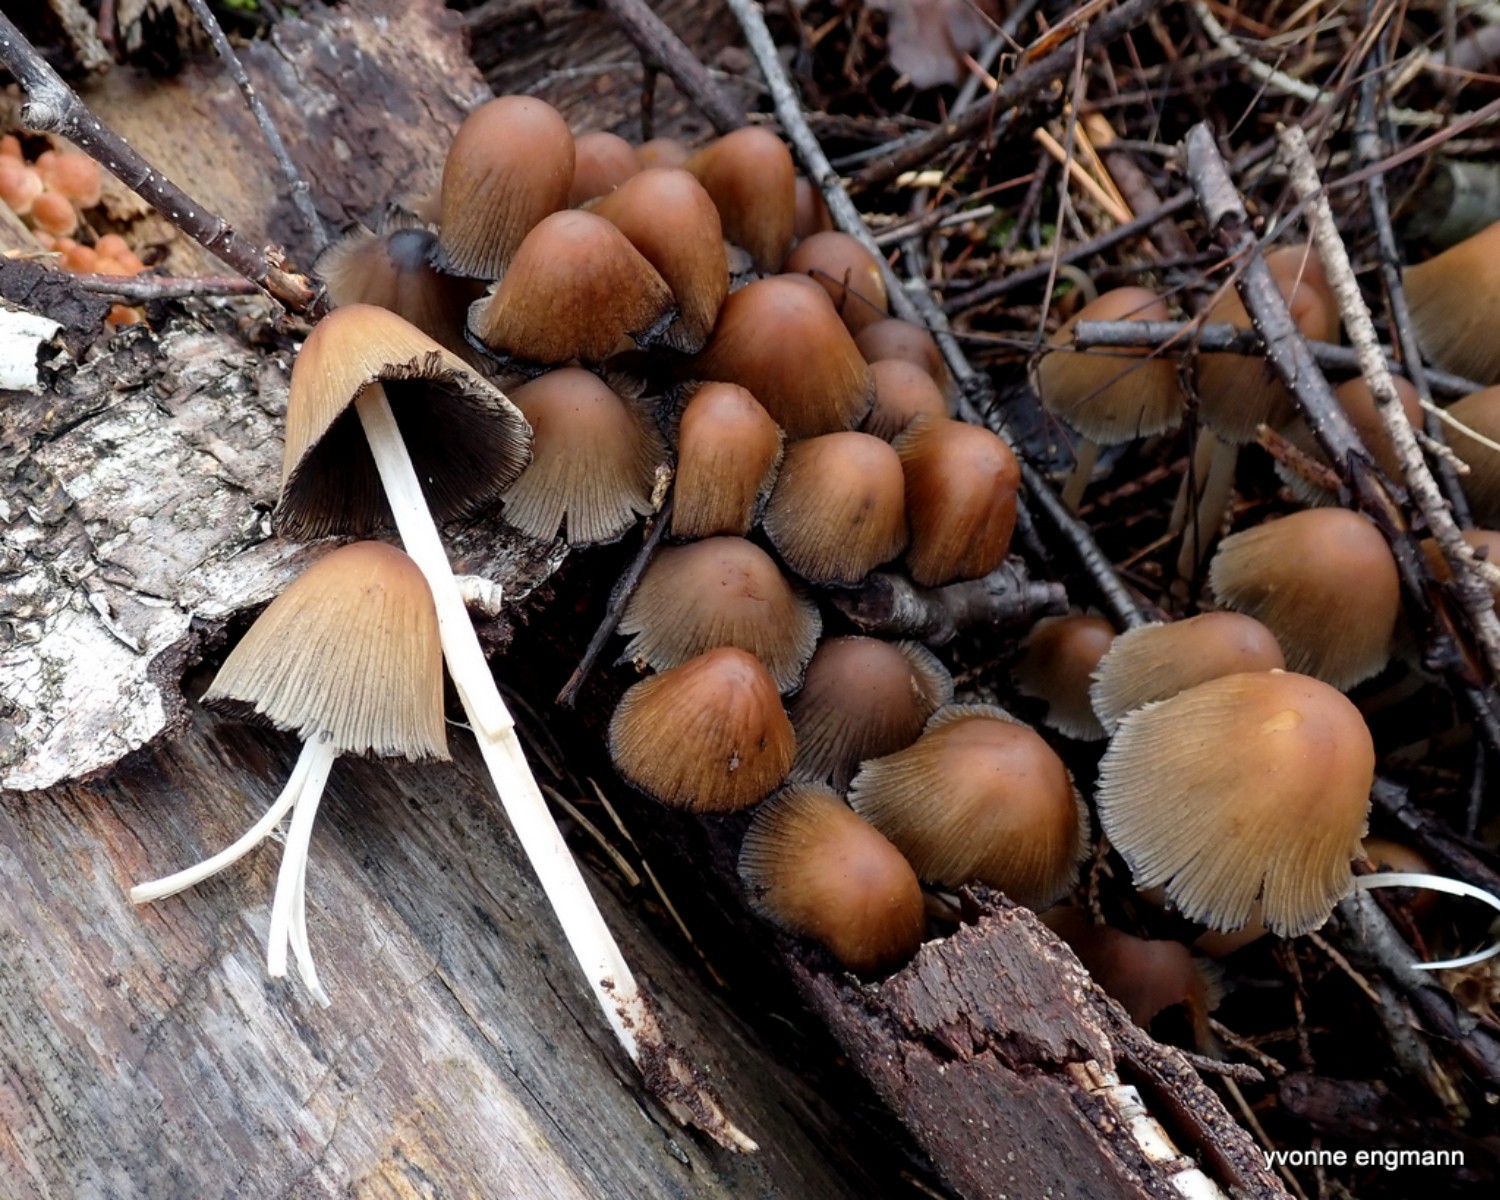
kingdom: Fungi
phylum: Basidiomycota
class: Agaricomycetes
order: Agaricales
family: Psathyrellaceae
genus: Coprinellus
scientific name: Coprinellus micaceus
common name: glimmer-blækhat
